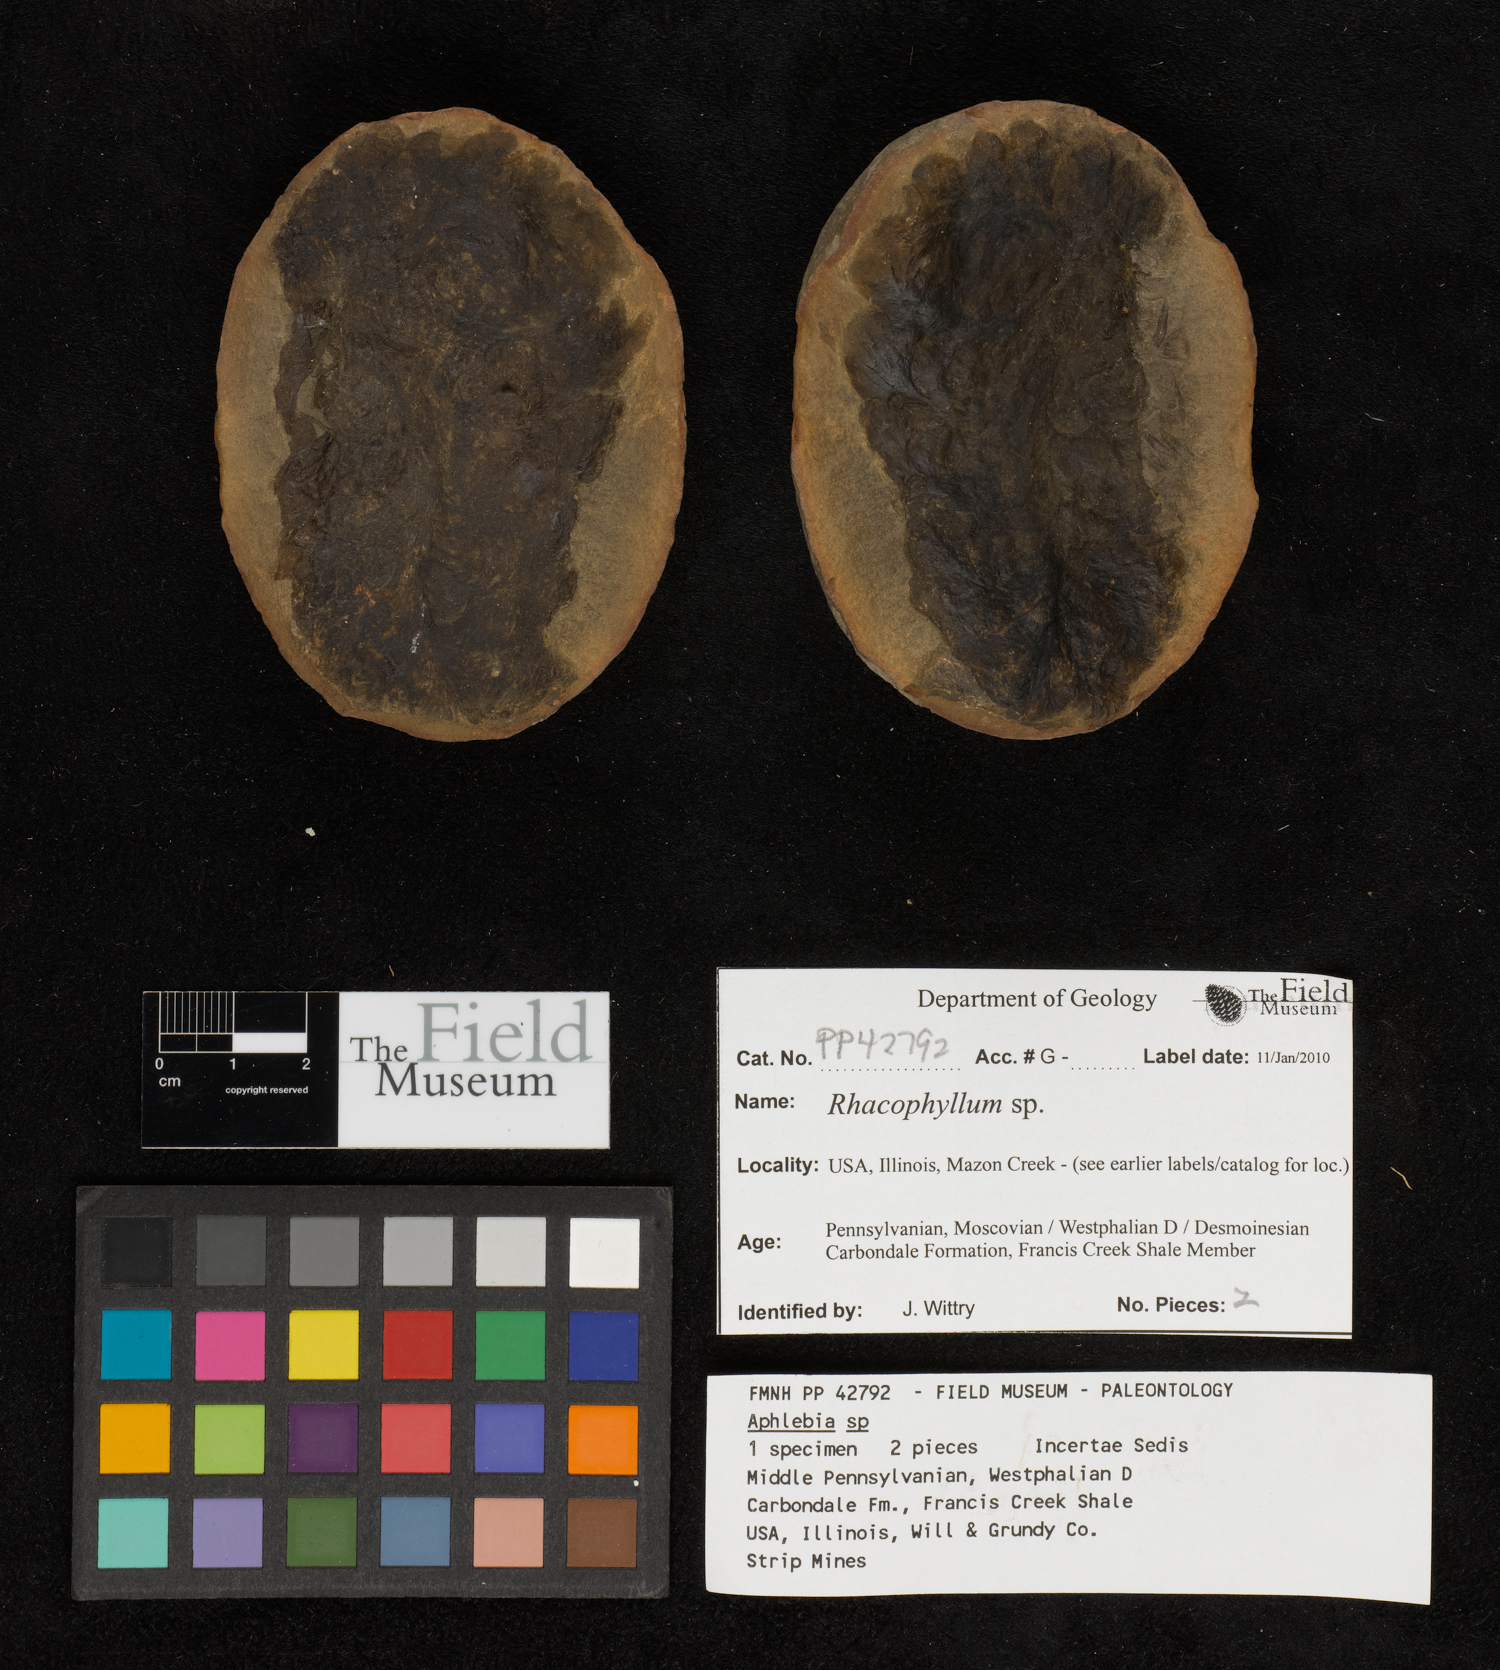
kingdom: Plantae
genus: Rhacophyllum
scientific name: Rhacophyllum
